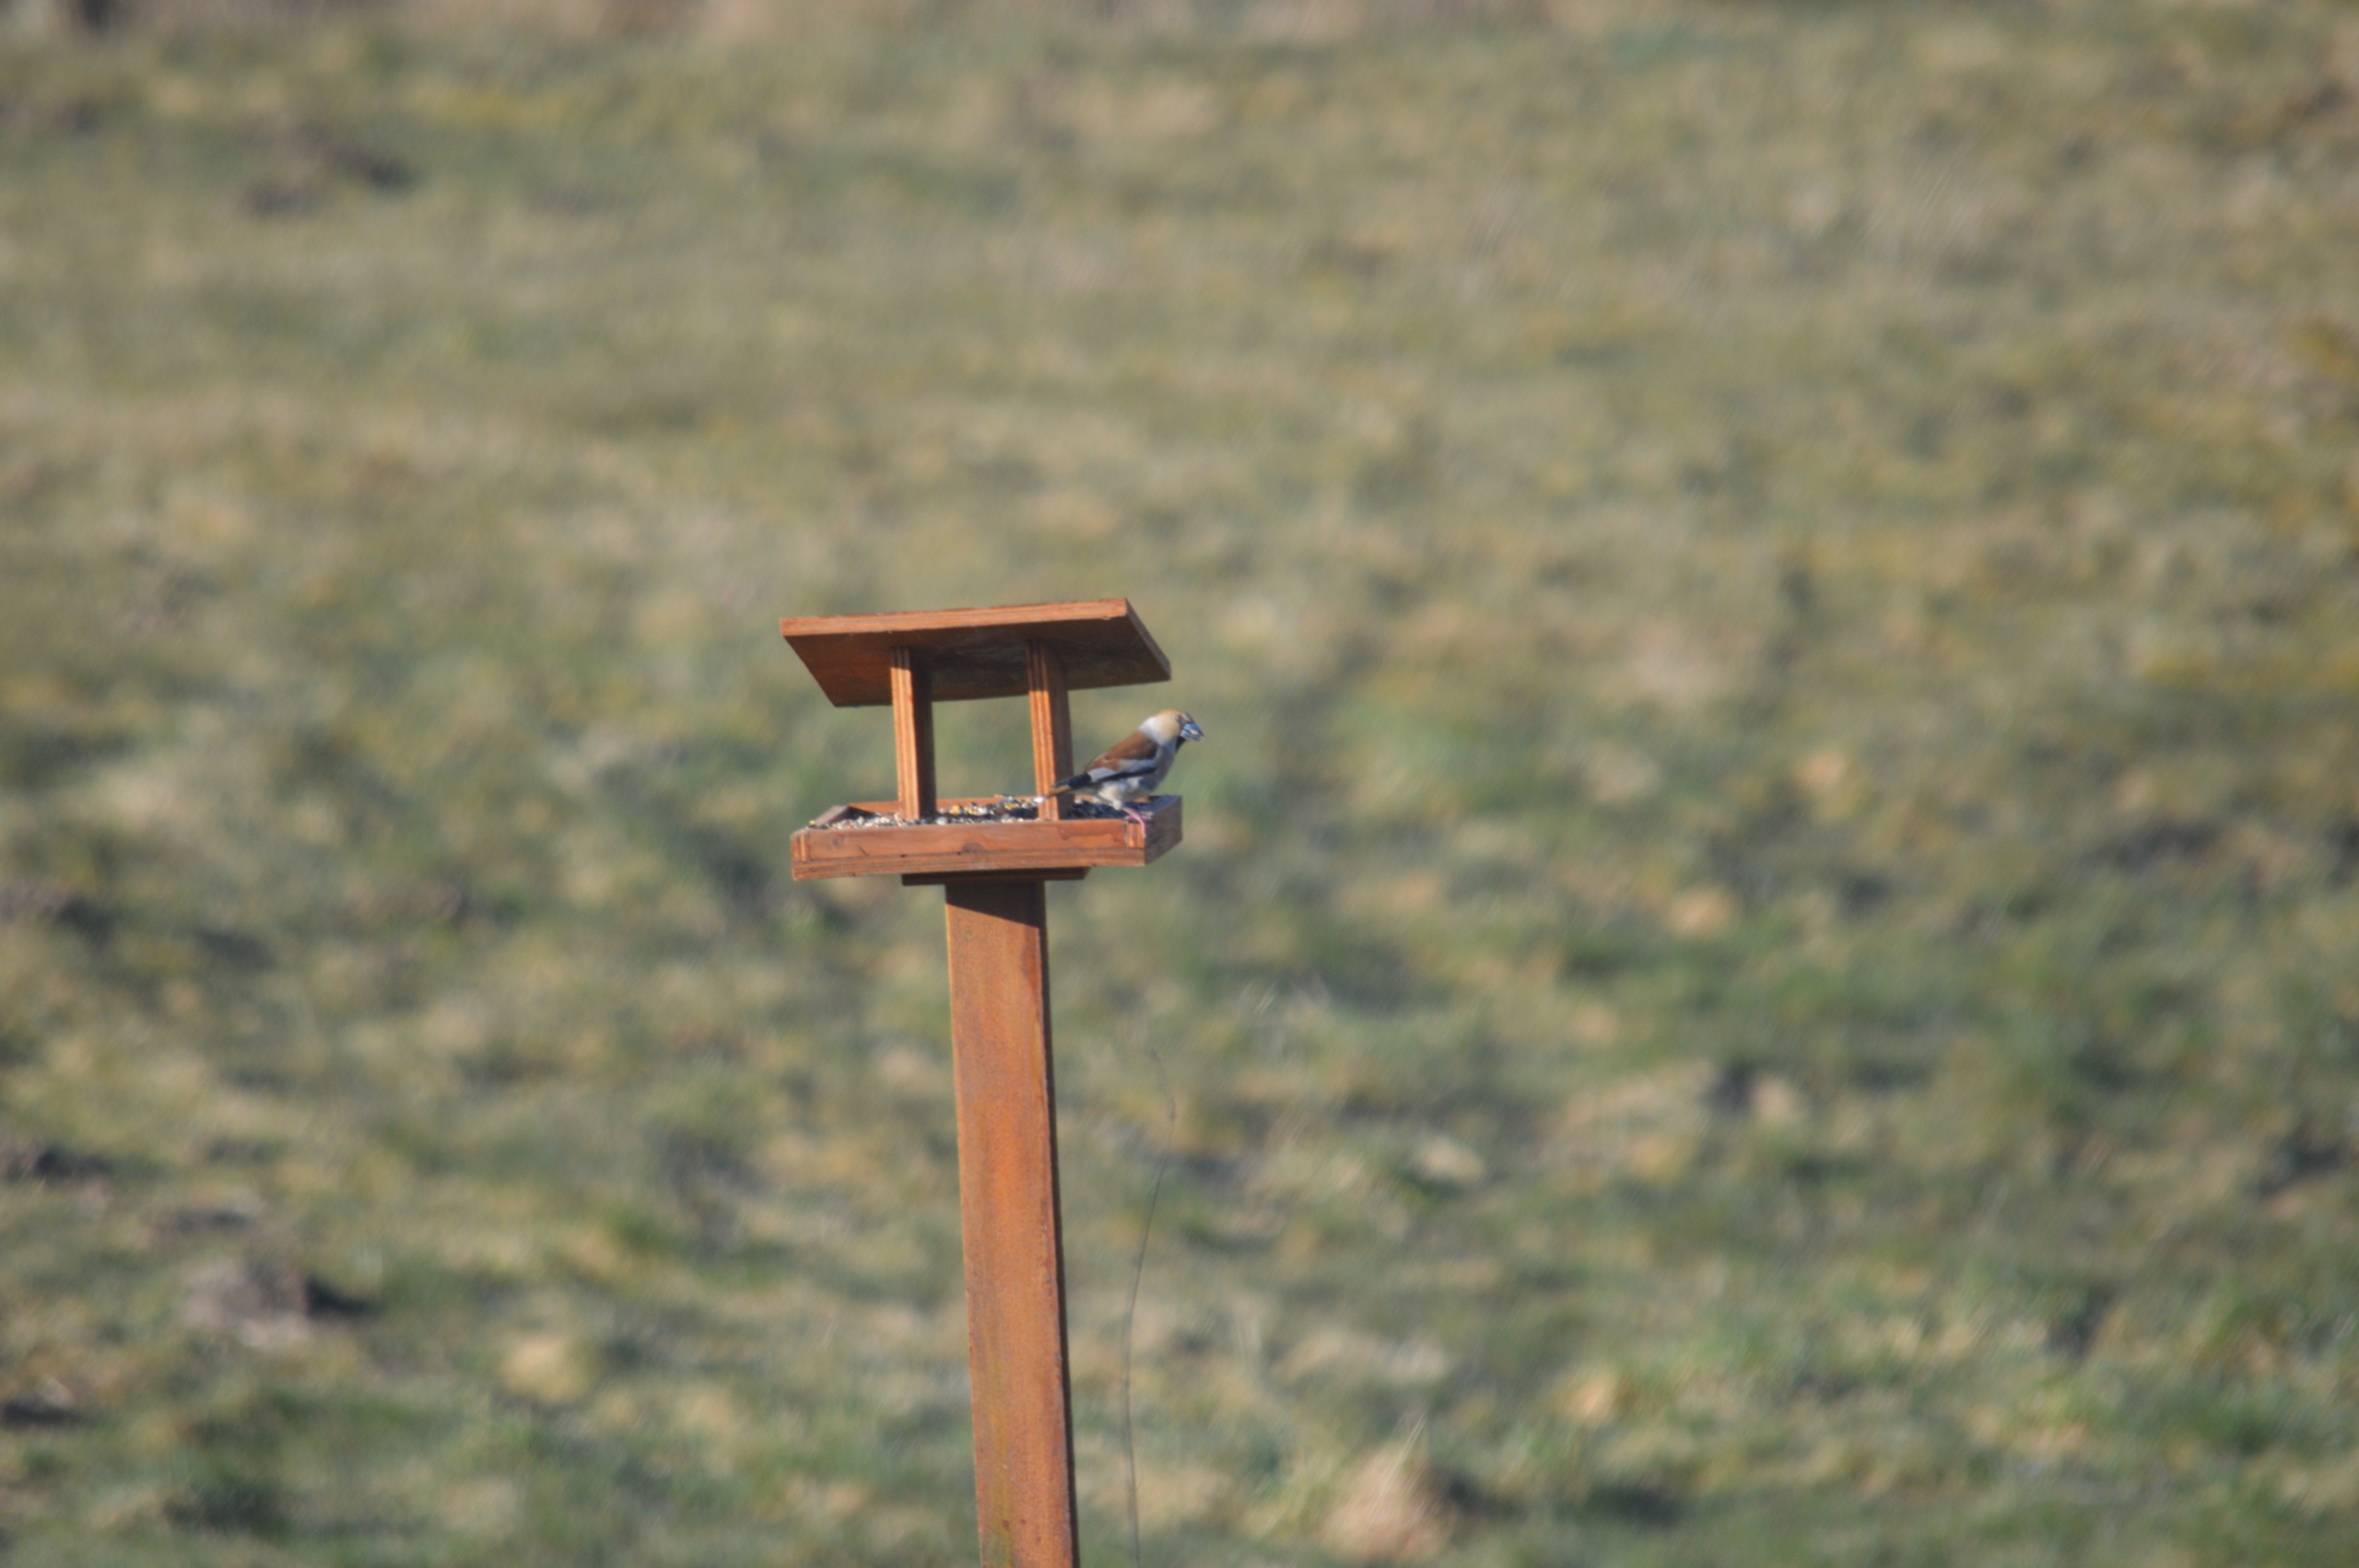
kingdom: Animalia
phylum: Chordata
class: Aves
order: Passeriformes
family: Fringillidae
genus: Coccothraustes
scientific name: Coccothraustes coccothraustes
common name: Kernebider
